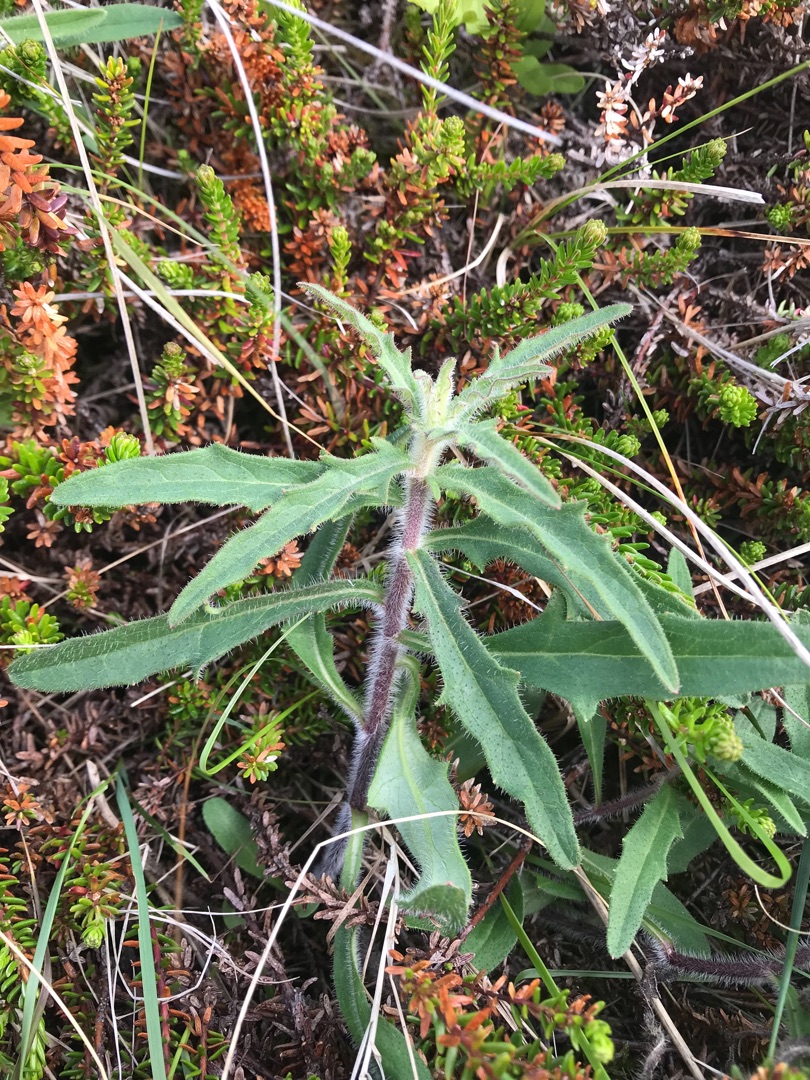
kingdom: Plantae
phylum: Tracheophyta
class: Magnoliopsida
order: Asterales
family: Asteraceae
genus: Hieracium
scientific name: Hieracium umbellatum
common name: Smalbladet høgeurt
